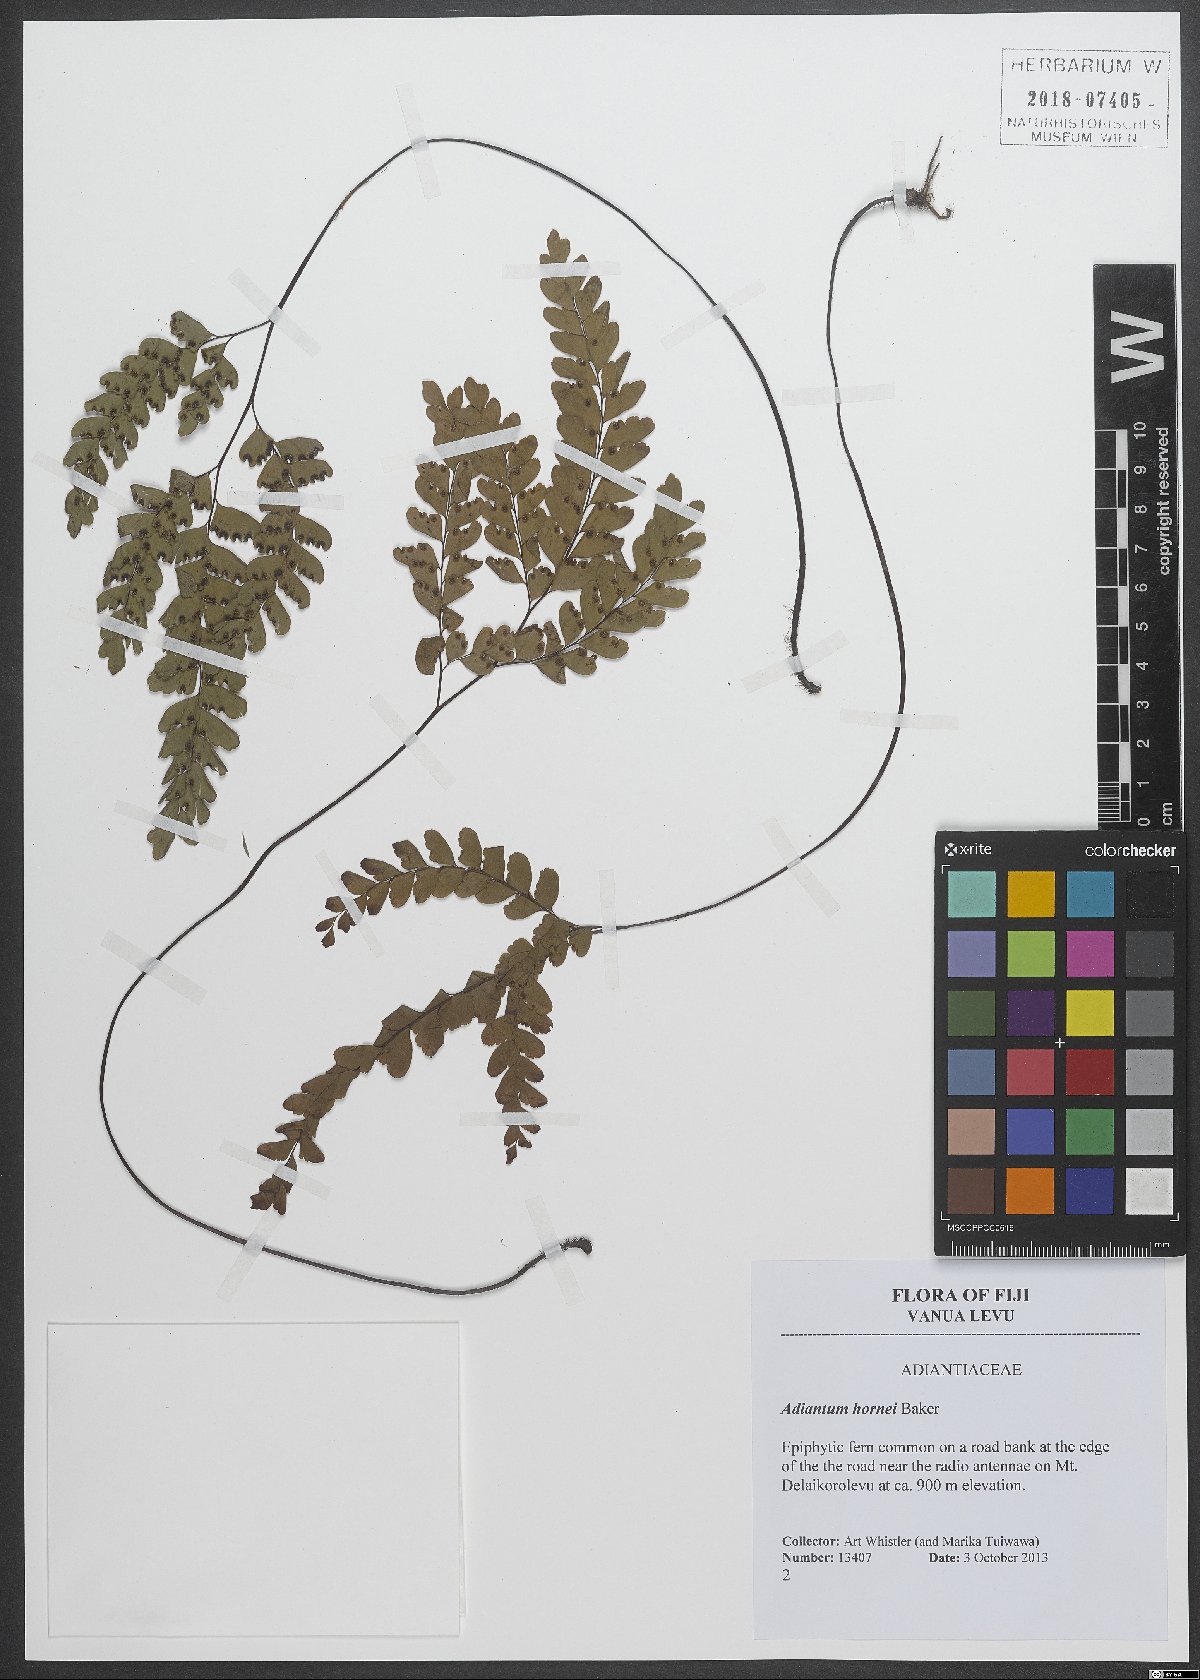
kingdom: Plantae
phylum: Tracheophyta
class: Polypodiopsida
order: Polypodiales
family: Pteridaceae
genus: Adiantum
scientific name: Adiantum hornei
